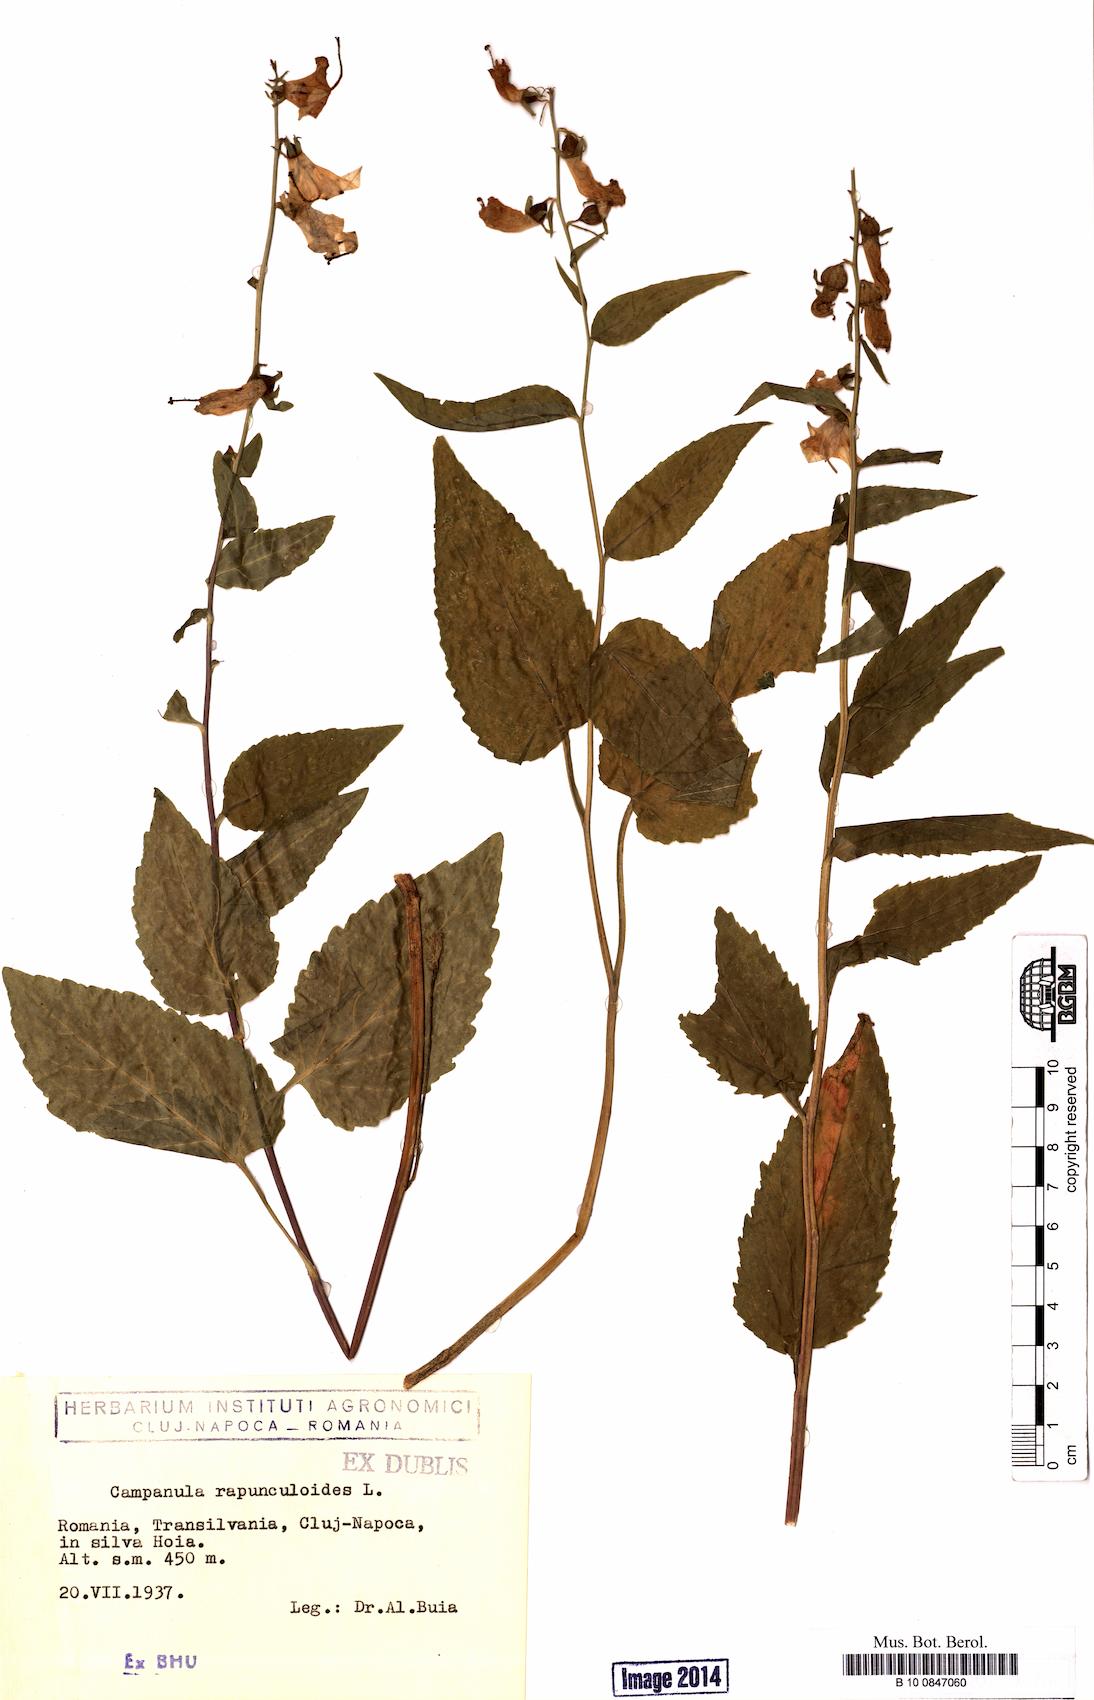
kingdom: Plantae
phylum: Tracheophyta
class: Magnoliopsida
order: Asterales
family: Campanulaceae
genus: Campanula
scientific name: Campanula rapunculoides
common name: Creeping bellflower
